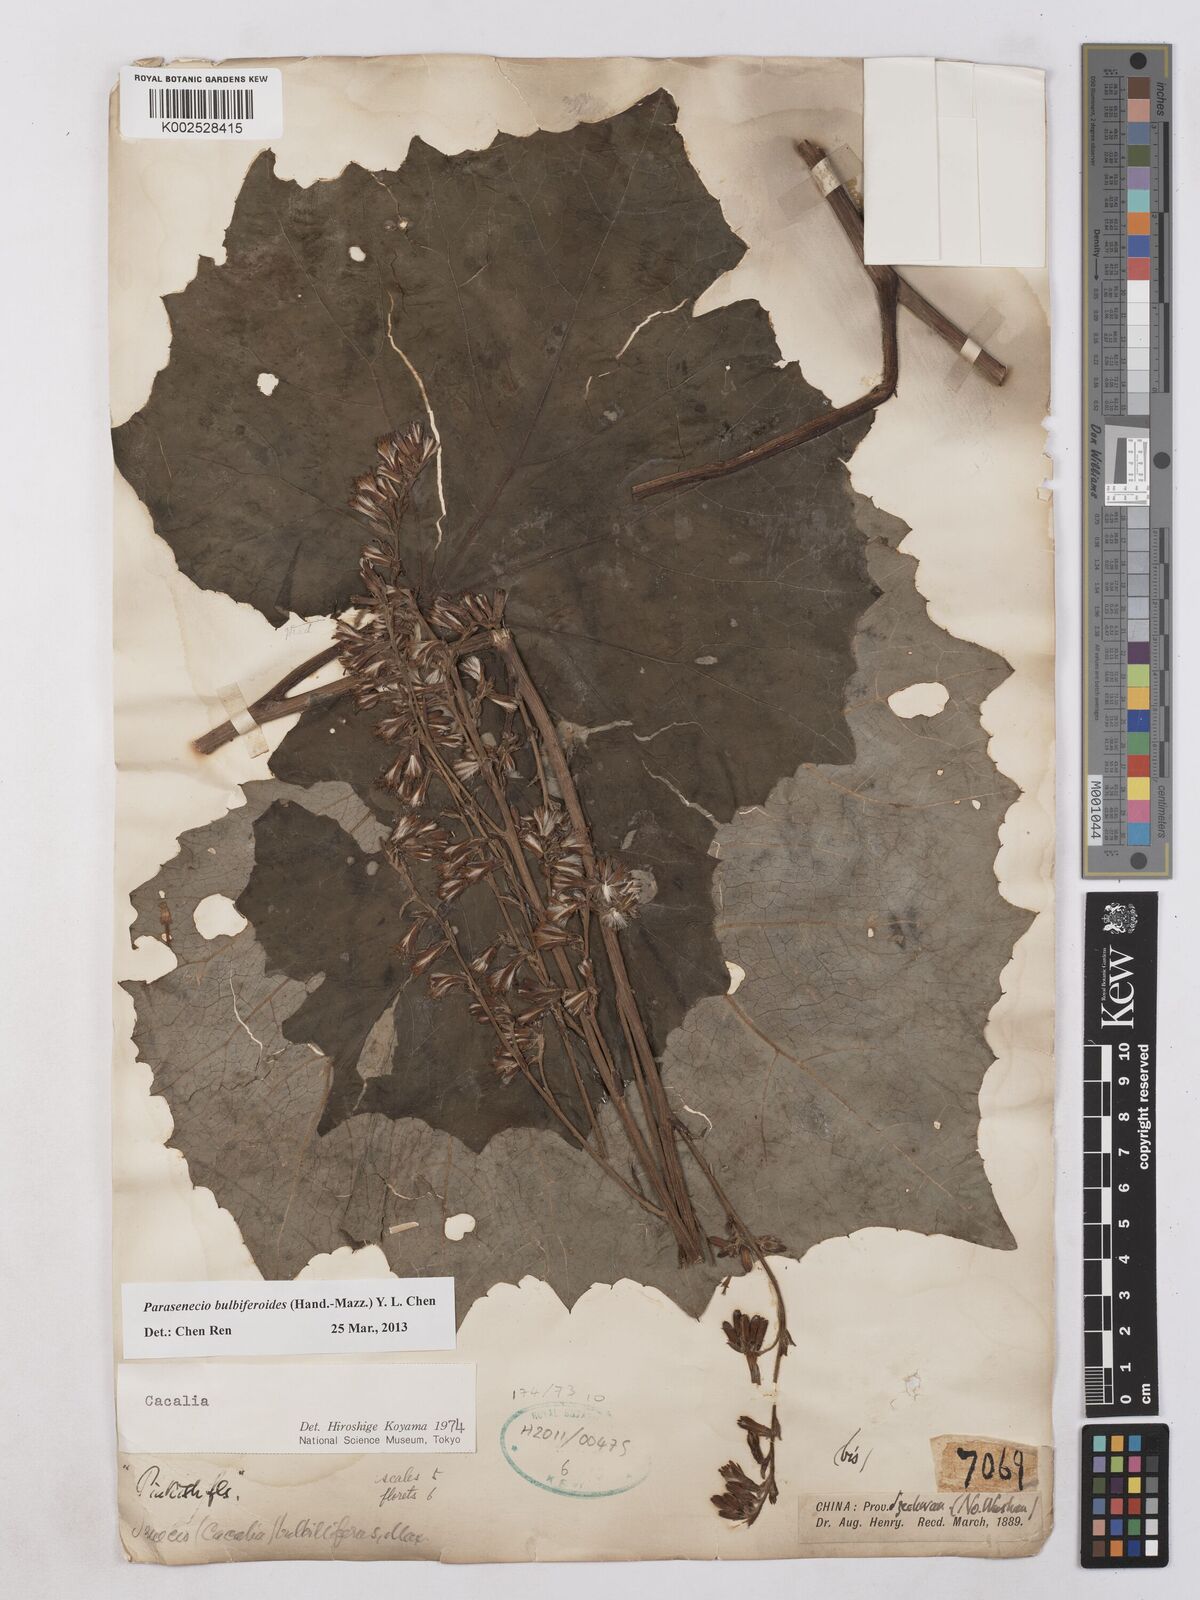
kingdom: Plantae
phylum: Tracheophyta
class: Magnoliopsida
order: Asterales
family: Asteraceae
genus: Parasenecio
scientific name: Parasenecio bulbiferoides
